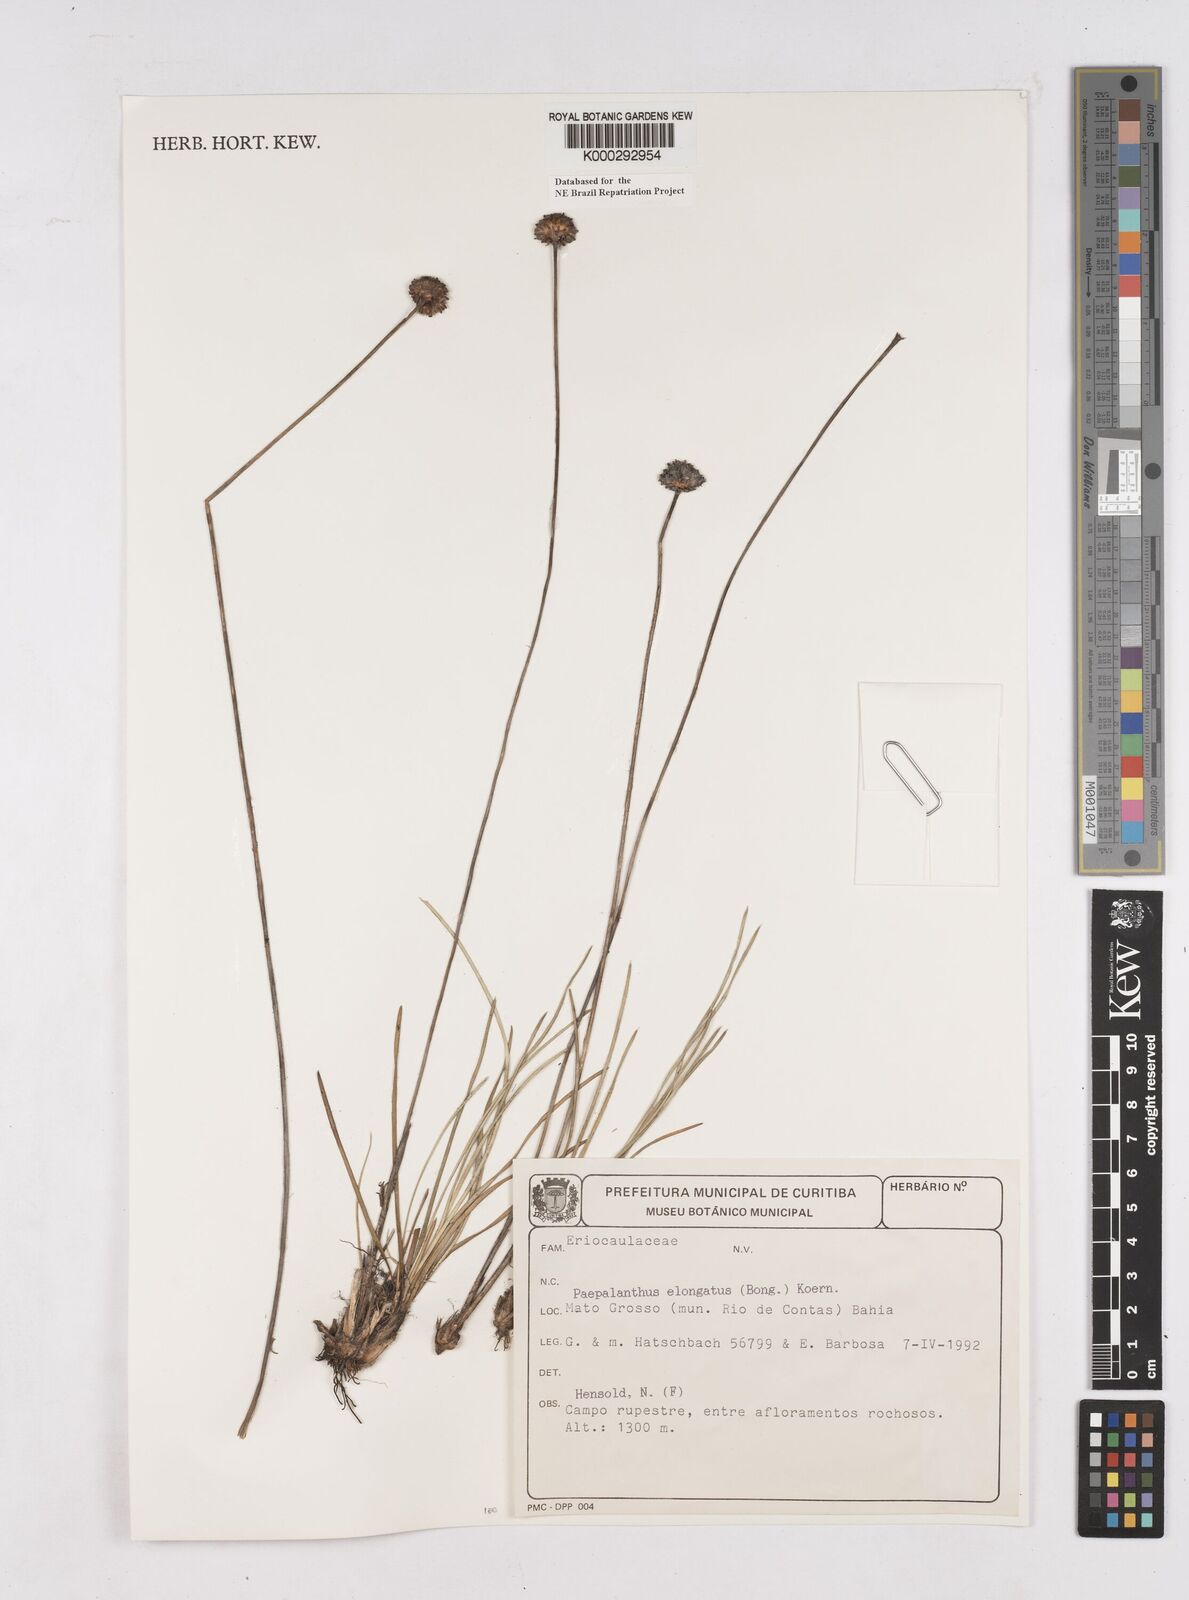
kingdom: Plantae
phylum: Tracheophyta
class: Liliopsida
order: Poales
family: Eriocaulaceae
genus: Paepalanthus
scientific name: Paepalanthus
